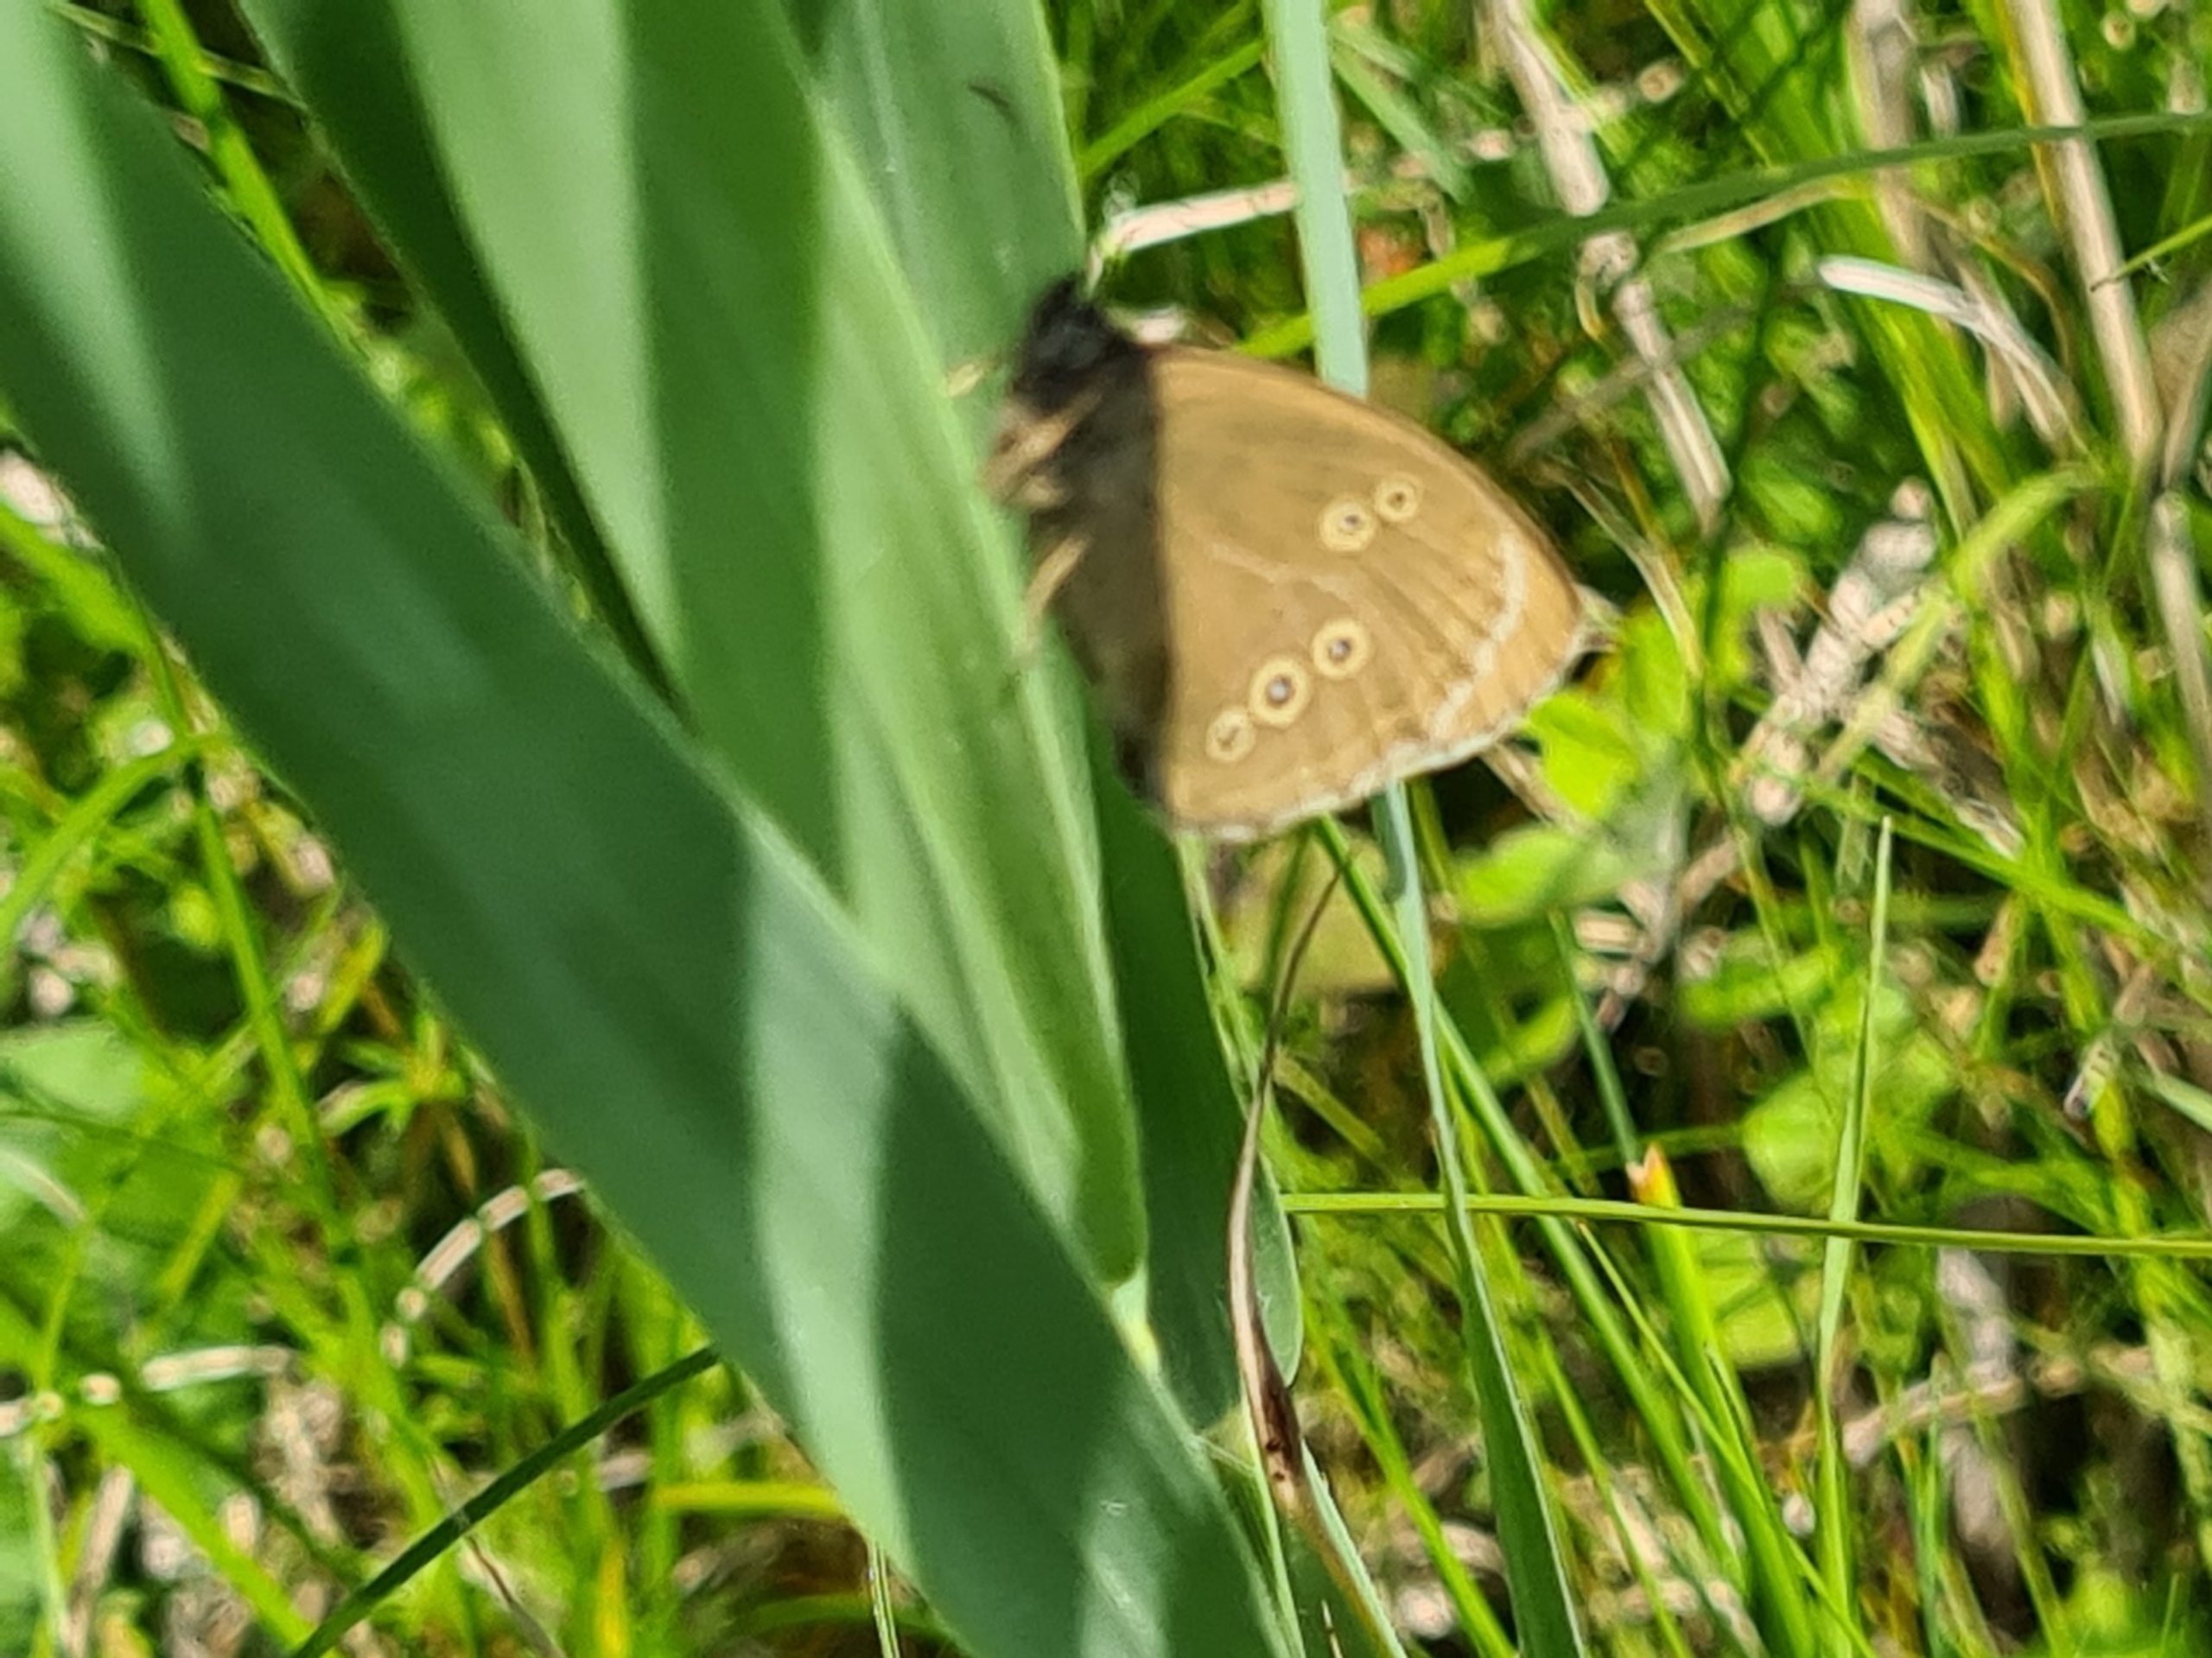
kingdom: Animalia
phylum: Arthropoda
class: Insecta
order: Lepidoptera
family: Nymphalidae
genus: Aphantopus
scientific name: Aphantopus hyperantus
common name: Engrandøje
